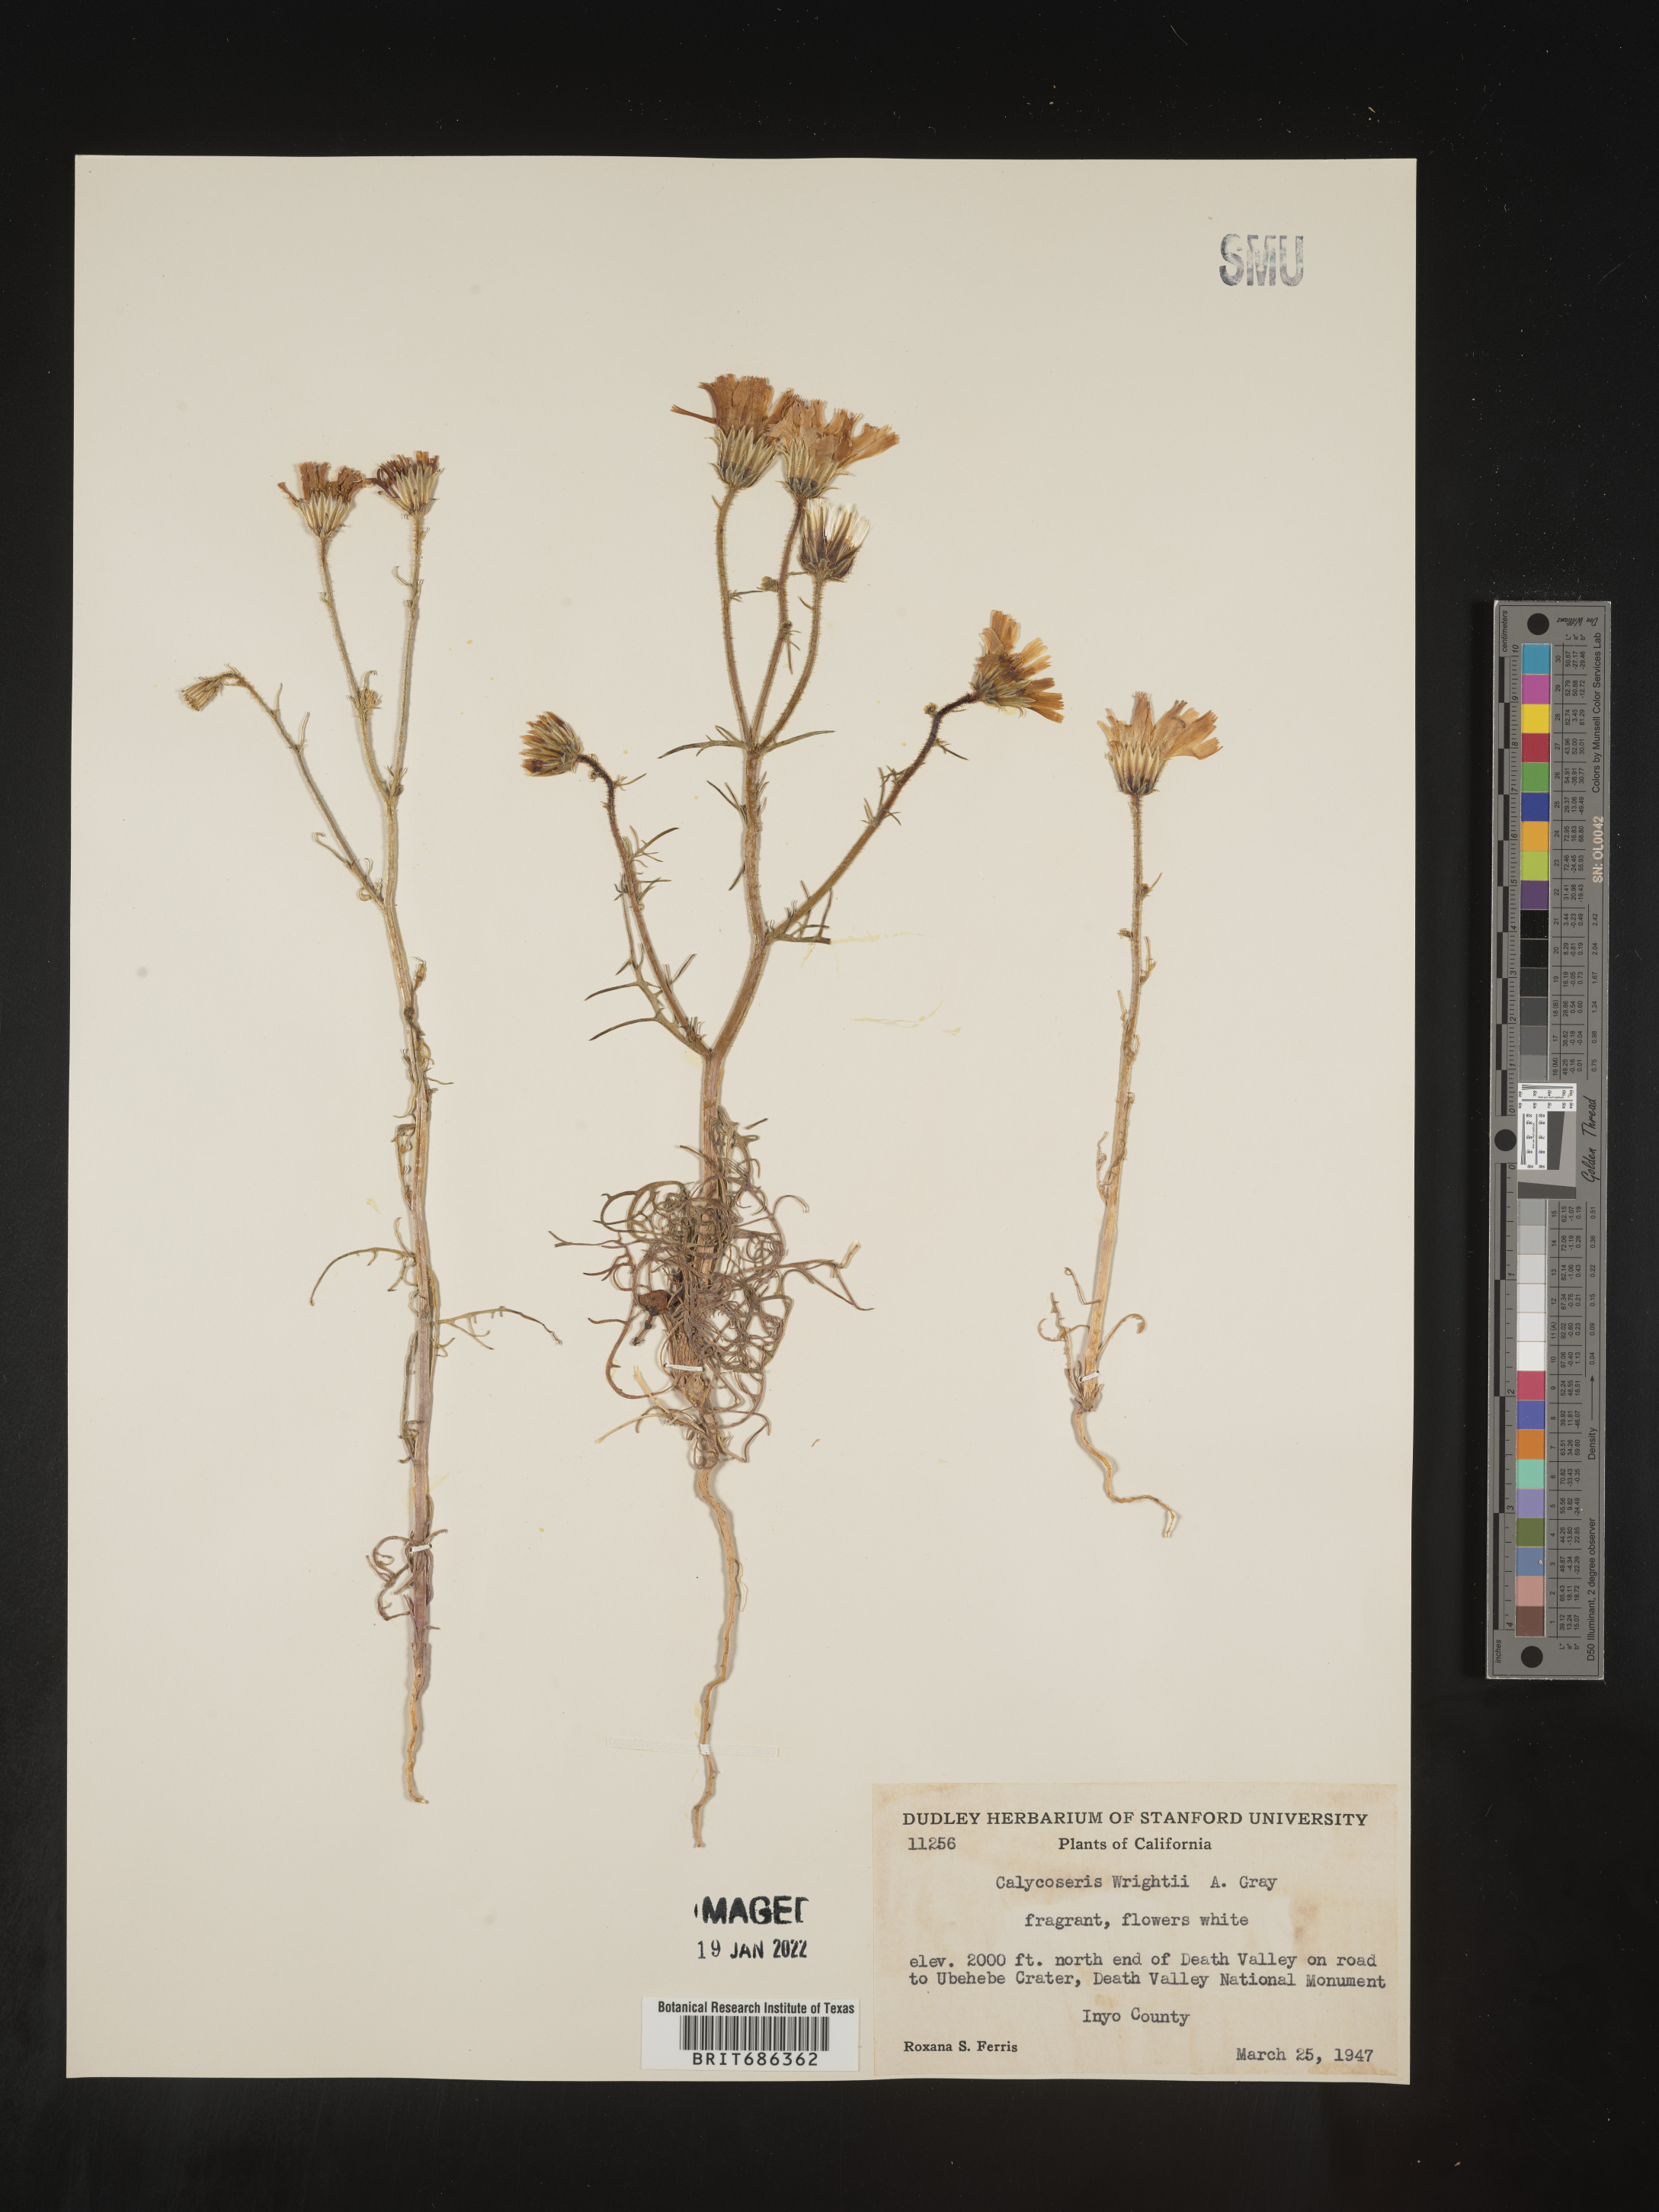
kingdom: Plantae
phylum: Tracheophyta
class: Magnoliopsida
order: Asterales
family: Asteraceae
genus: Calycoseris
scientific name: Calycoseris
